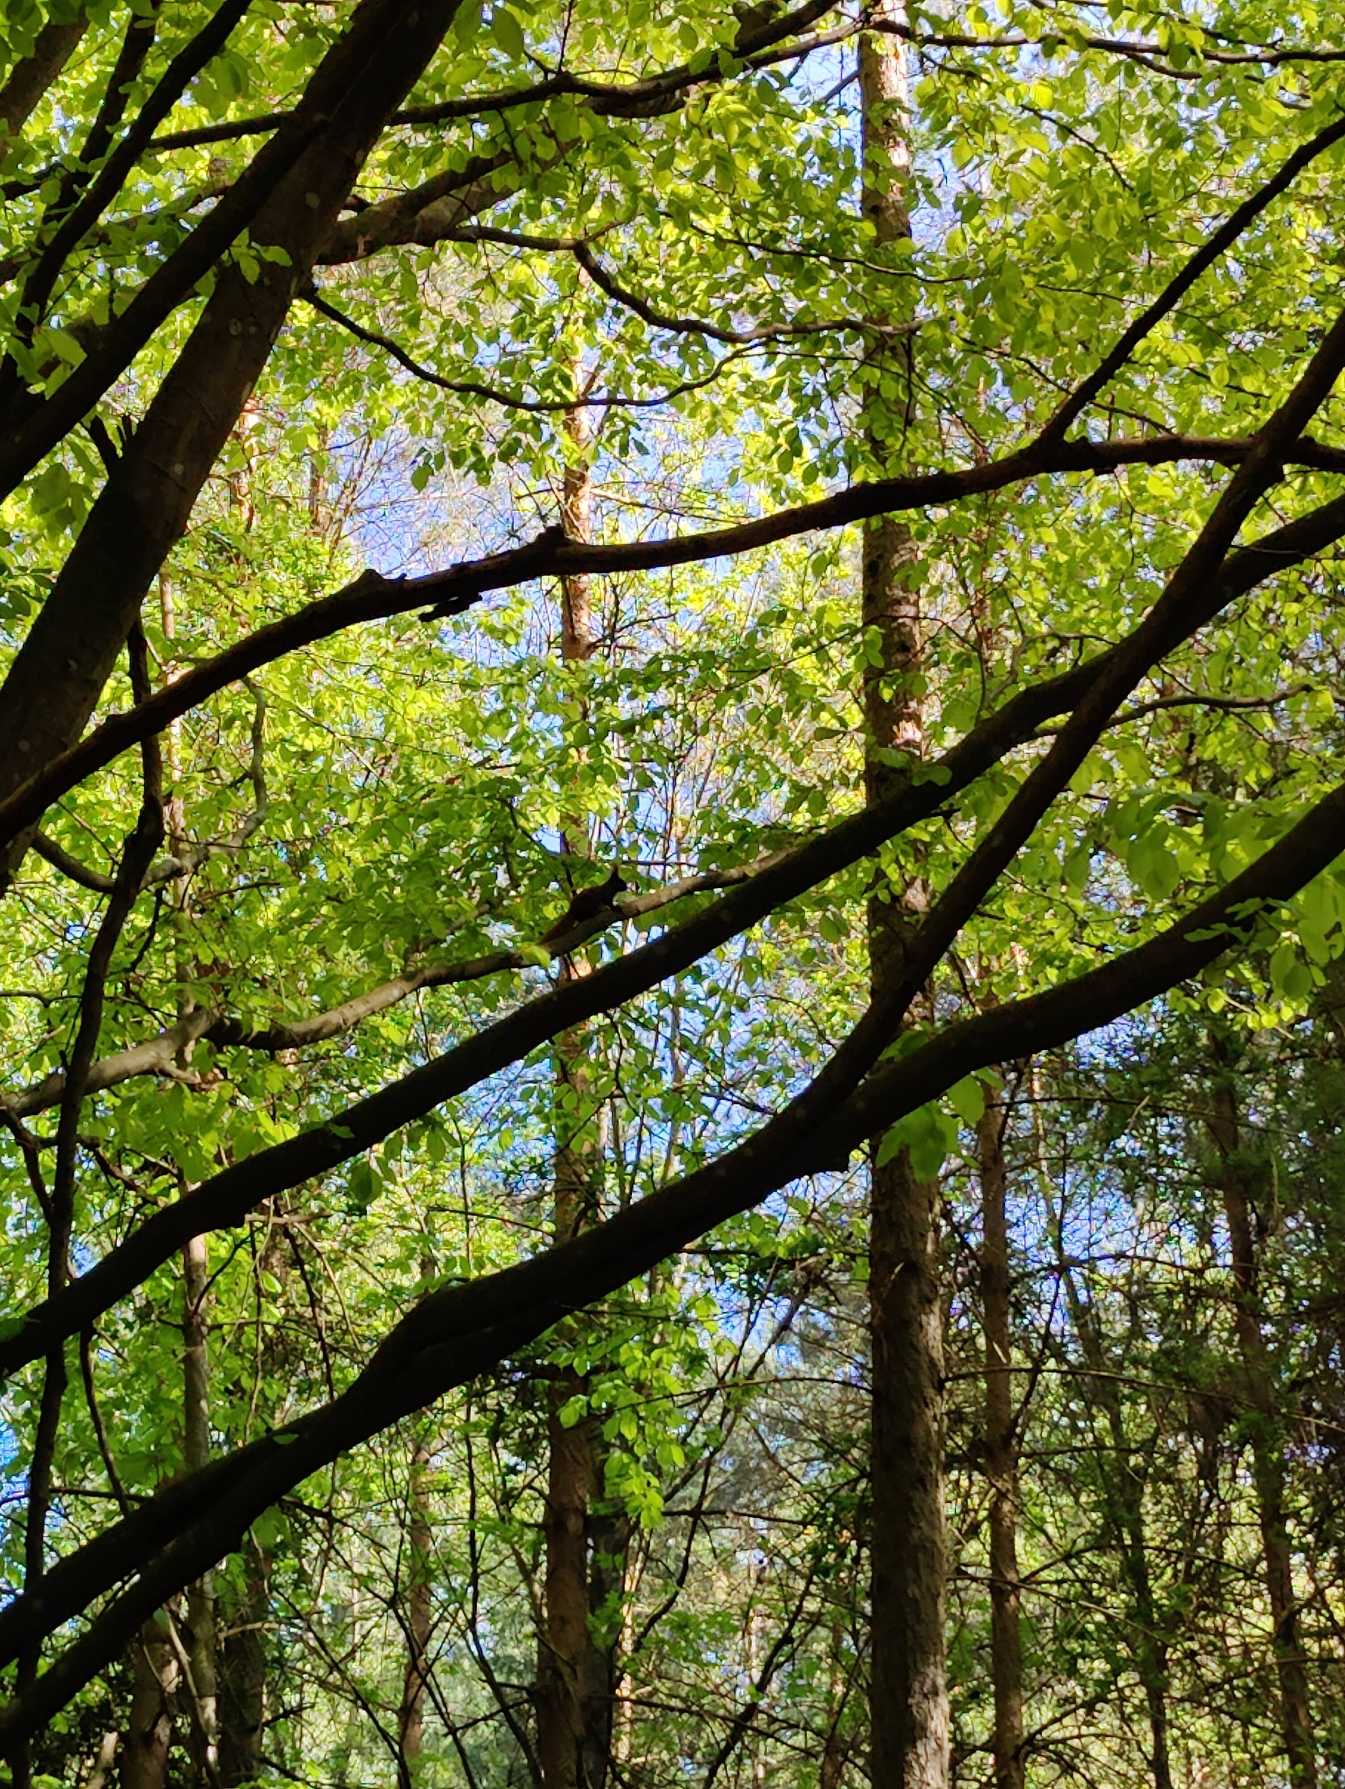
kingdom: Animalia
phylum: Chordata
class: Mammalia
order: Rodentia
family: Sciuridae
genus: Sciurus
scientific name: Sciurus vulgaris
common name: Egern
